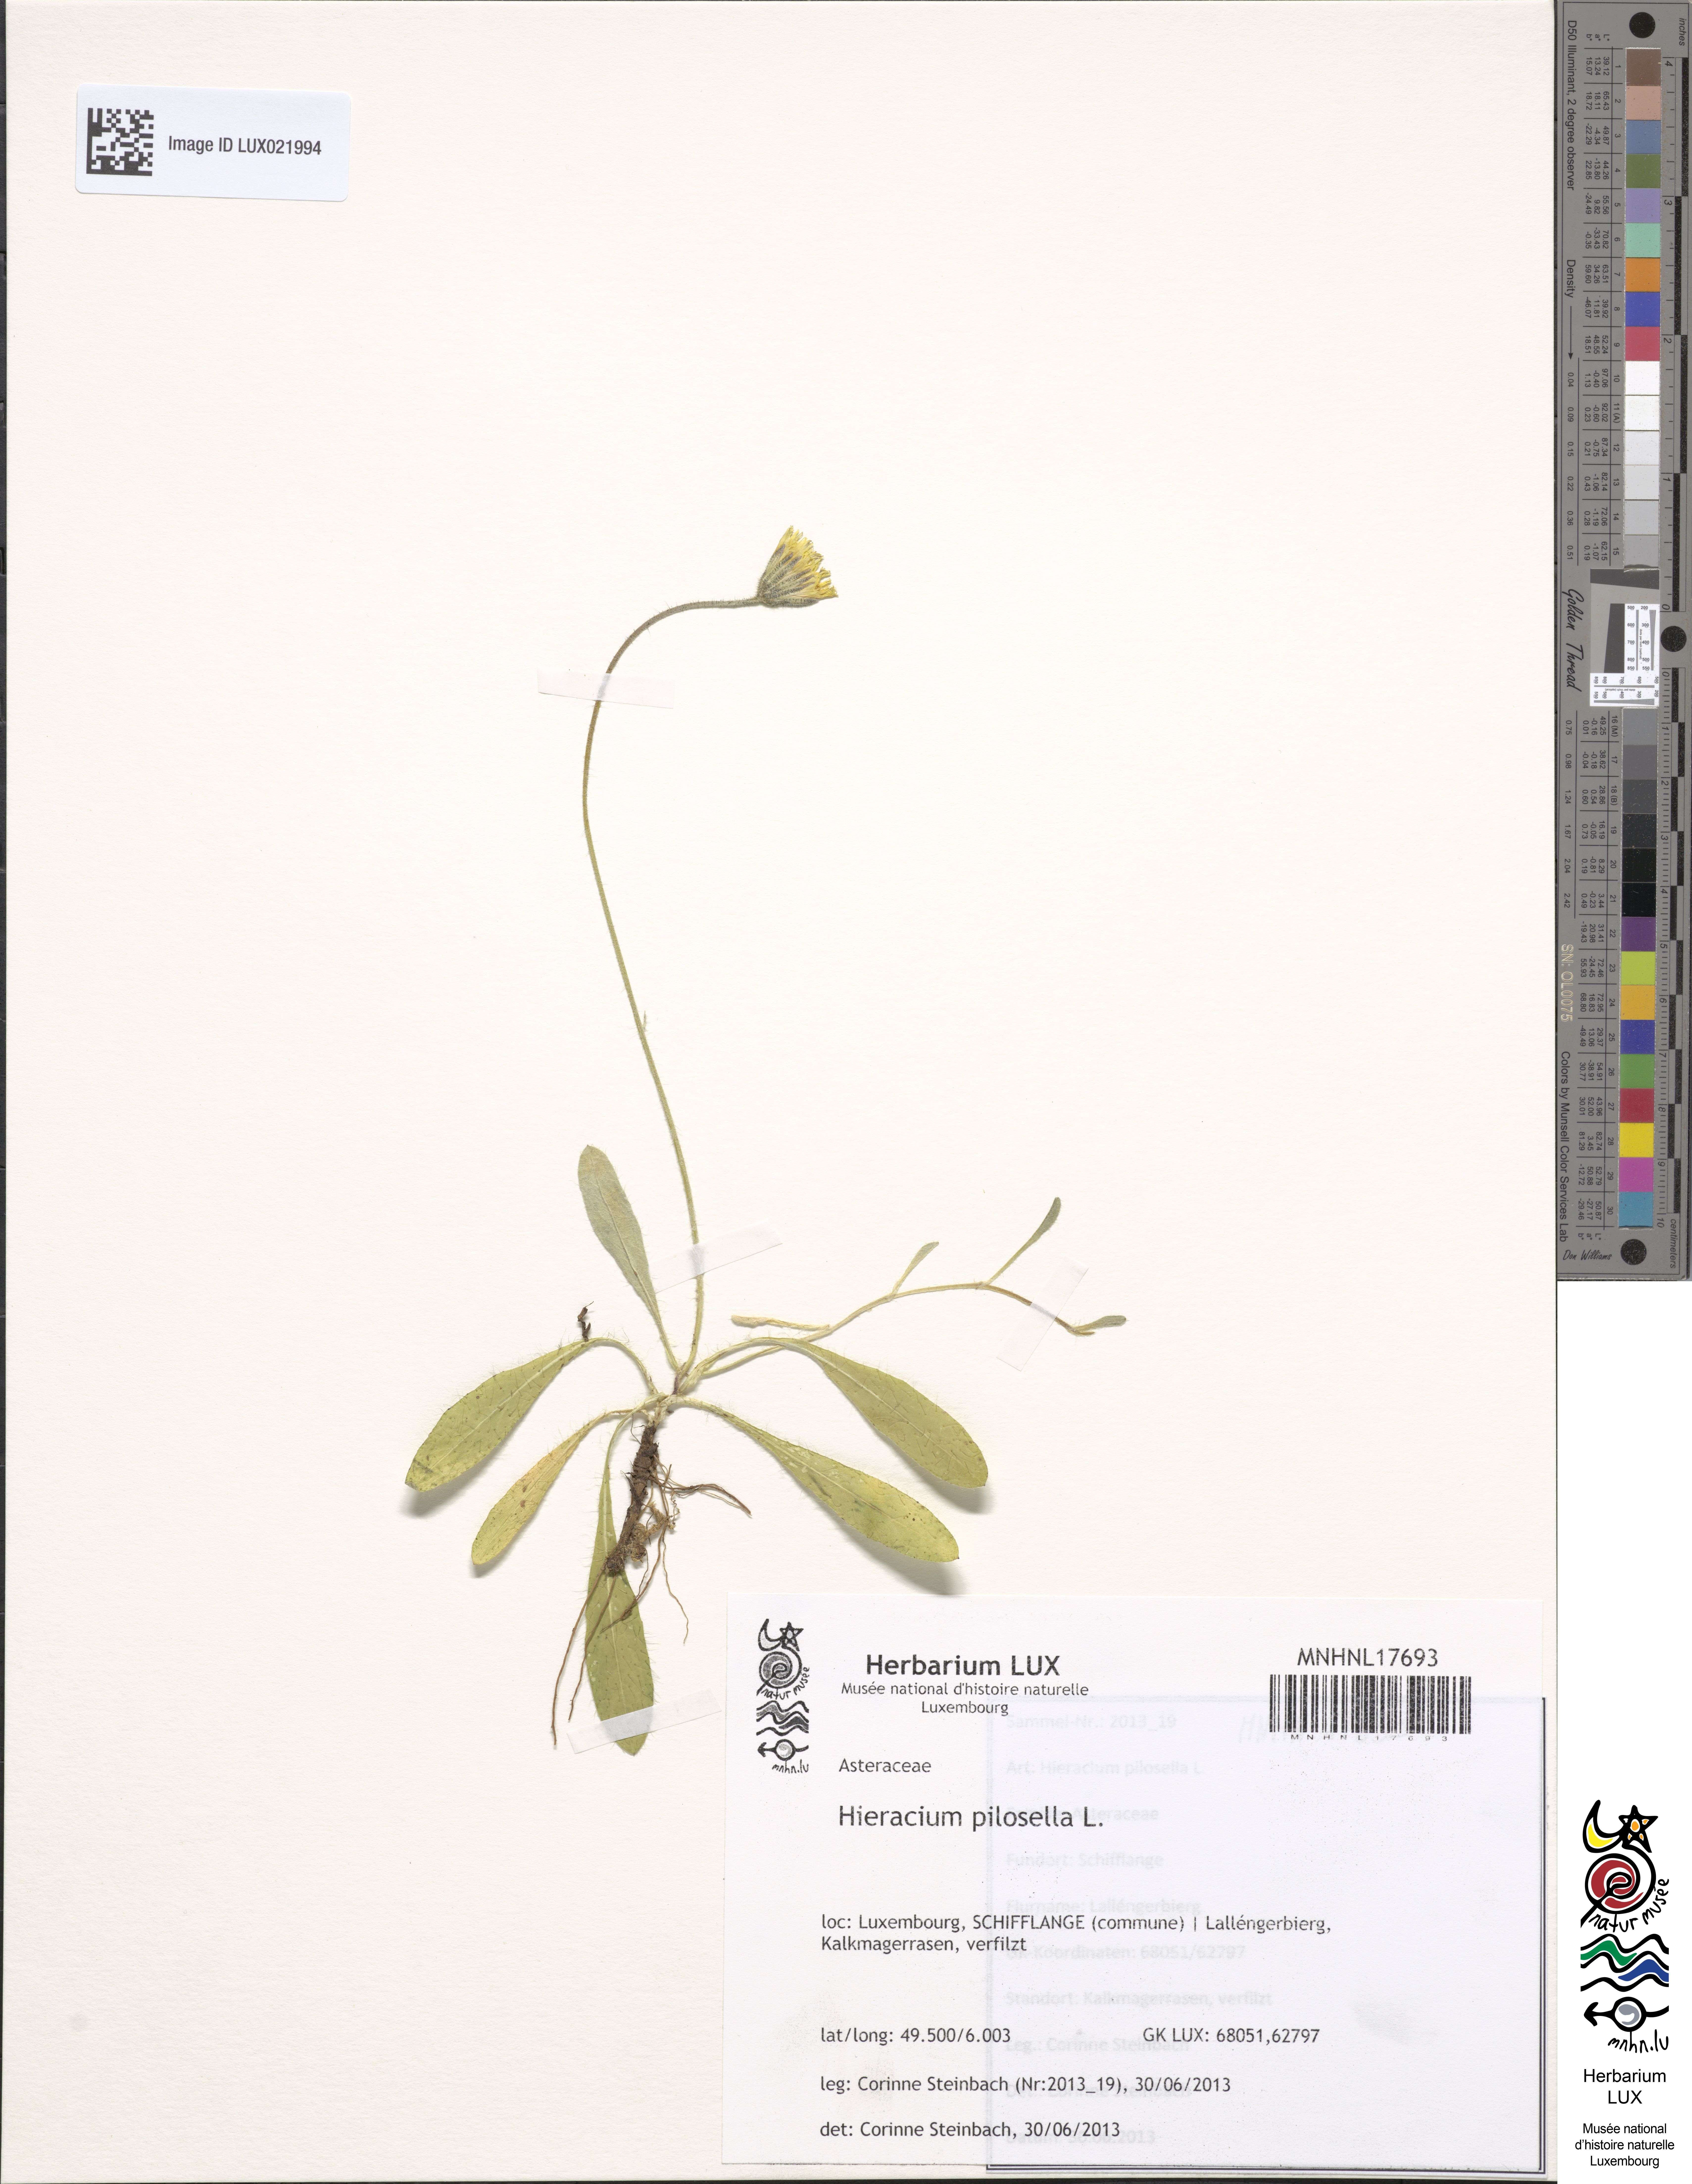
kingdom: Plantae
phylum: Tracheophyta
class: Magnoliopsida
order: Asterales
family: Asteraceae
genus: Pilosella
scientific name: Pilosella officinarum
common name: Mouse-ear hawkweed
